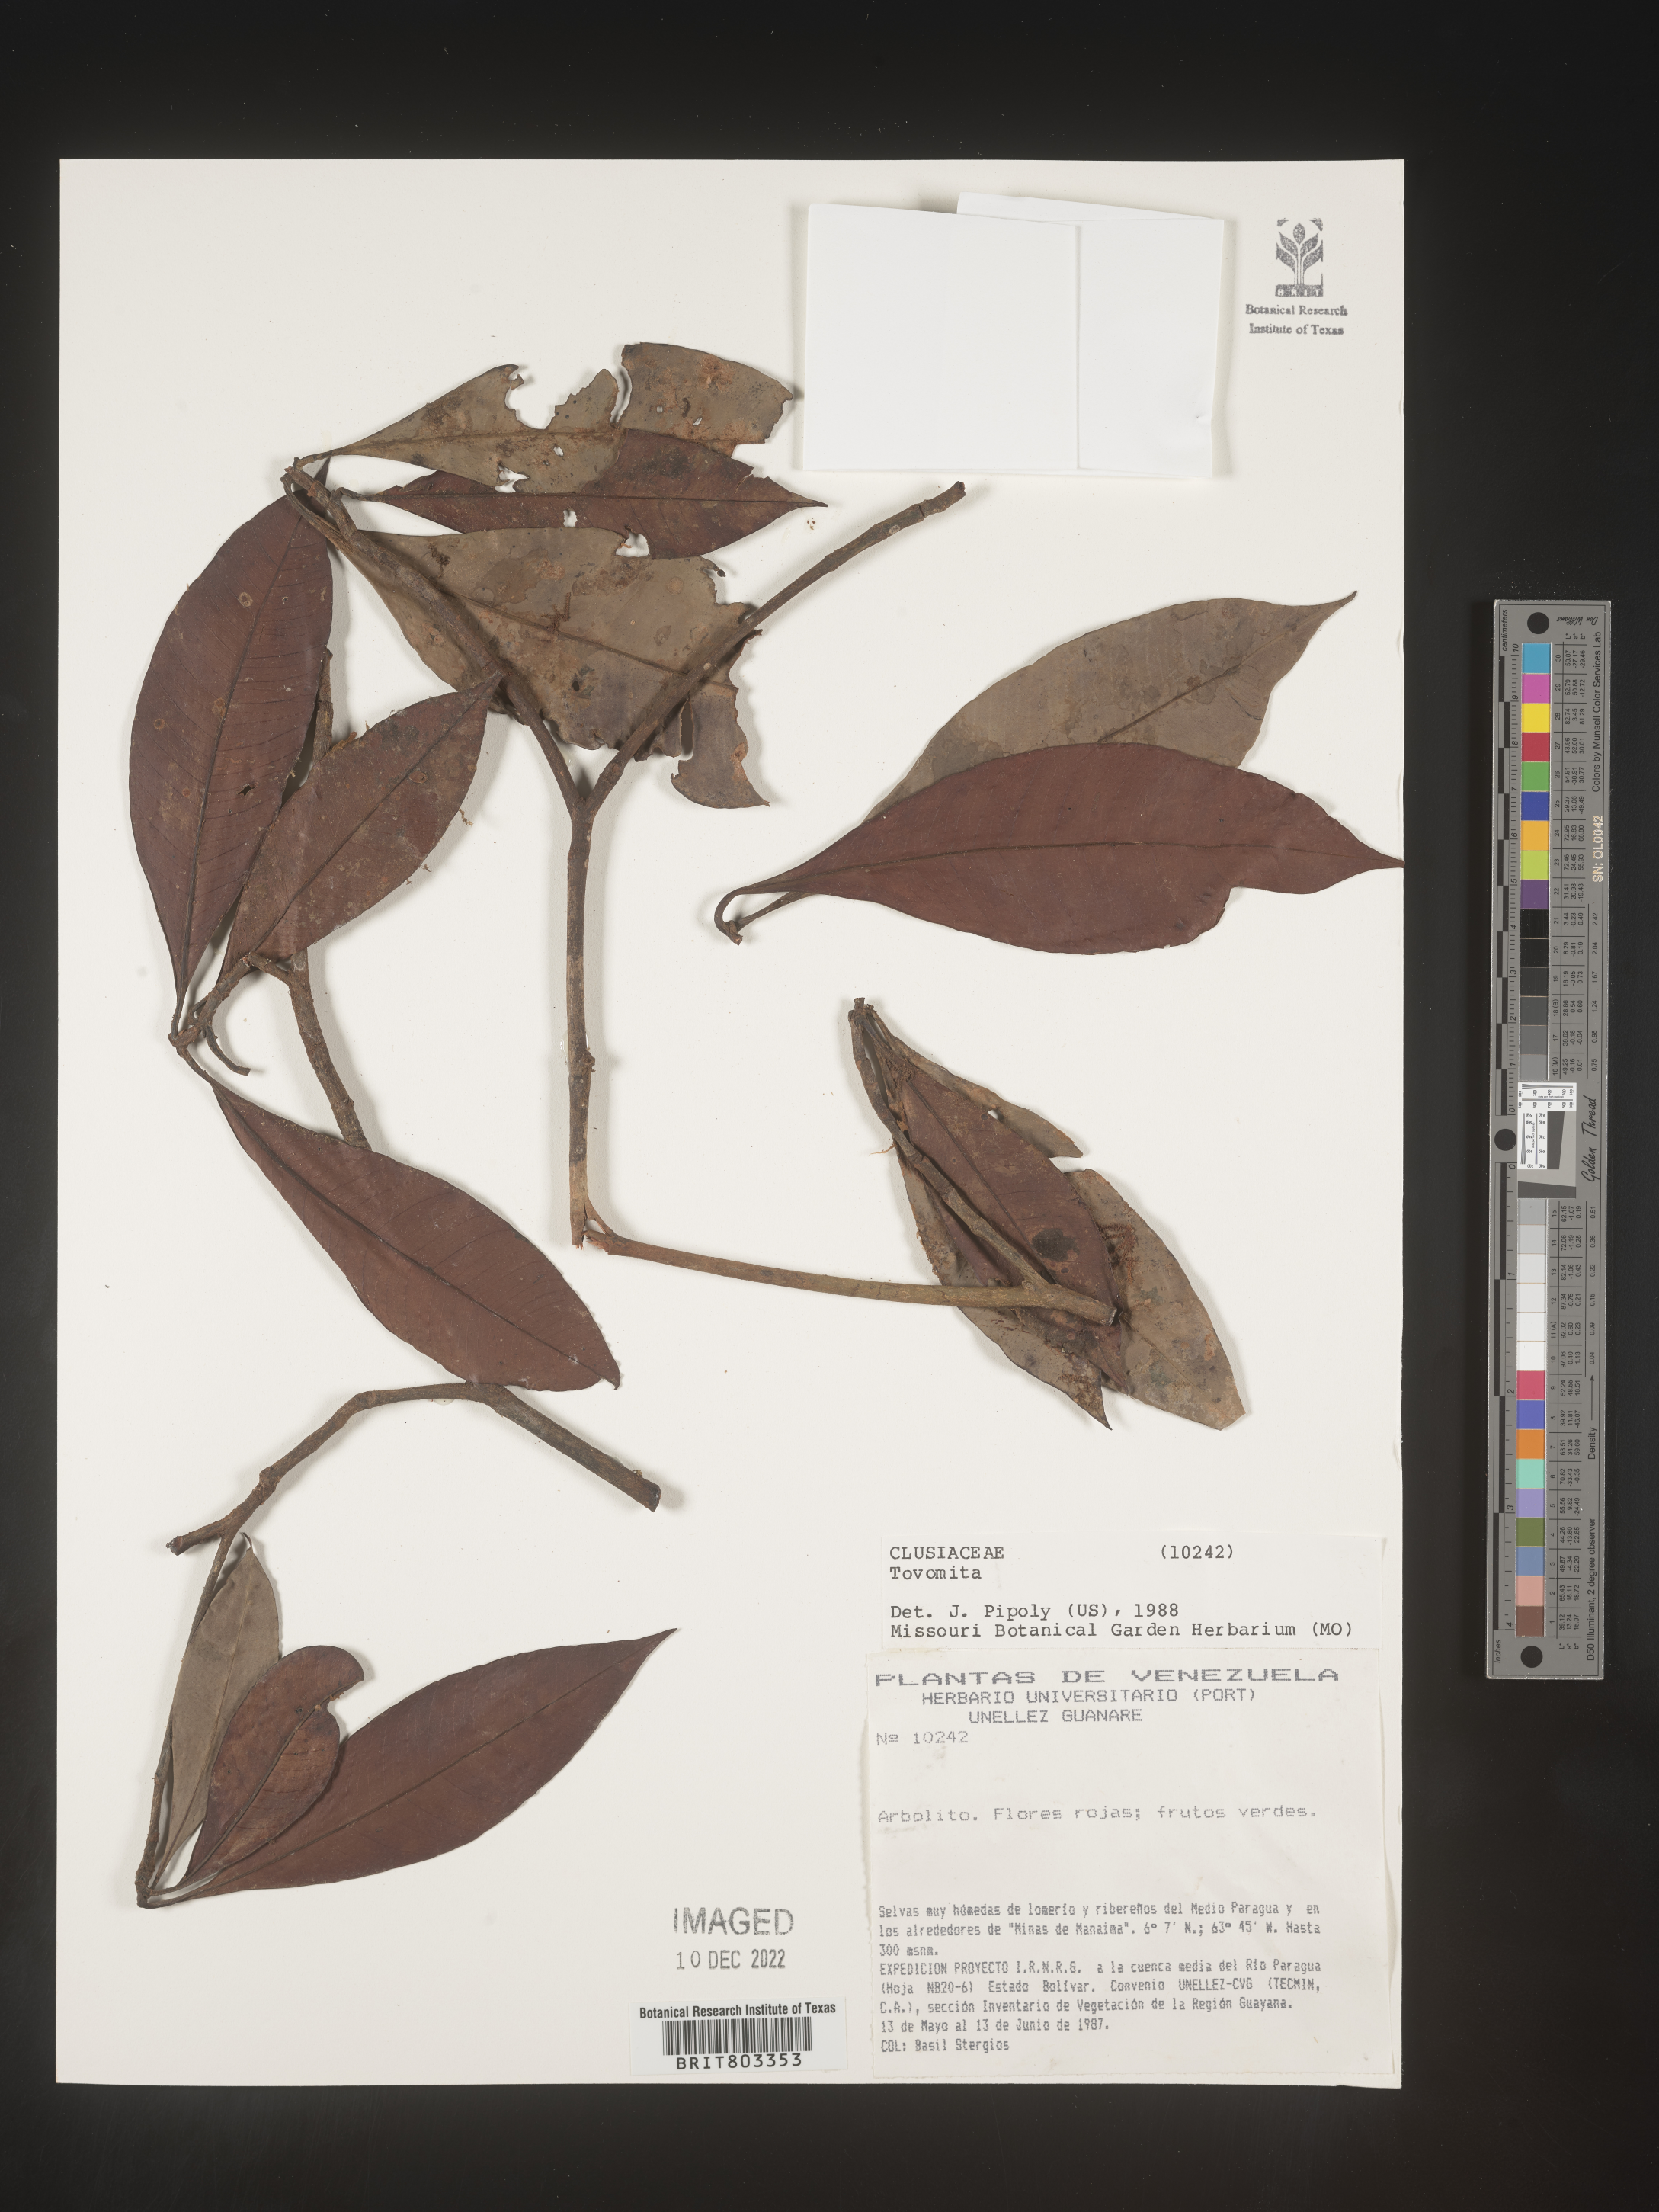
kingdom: Plantae
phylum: Tracheophyta
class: Magnoliopsida
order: Malpighiales
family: Clusiaceae
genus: Tovomita
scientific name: Tovomita
